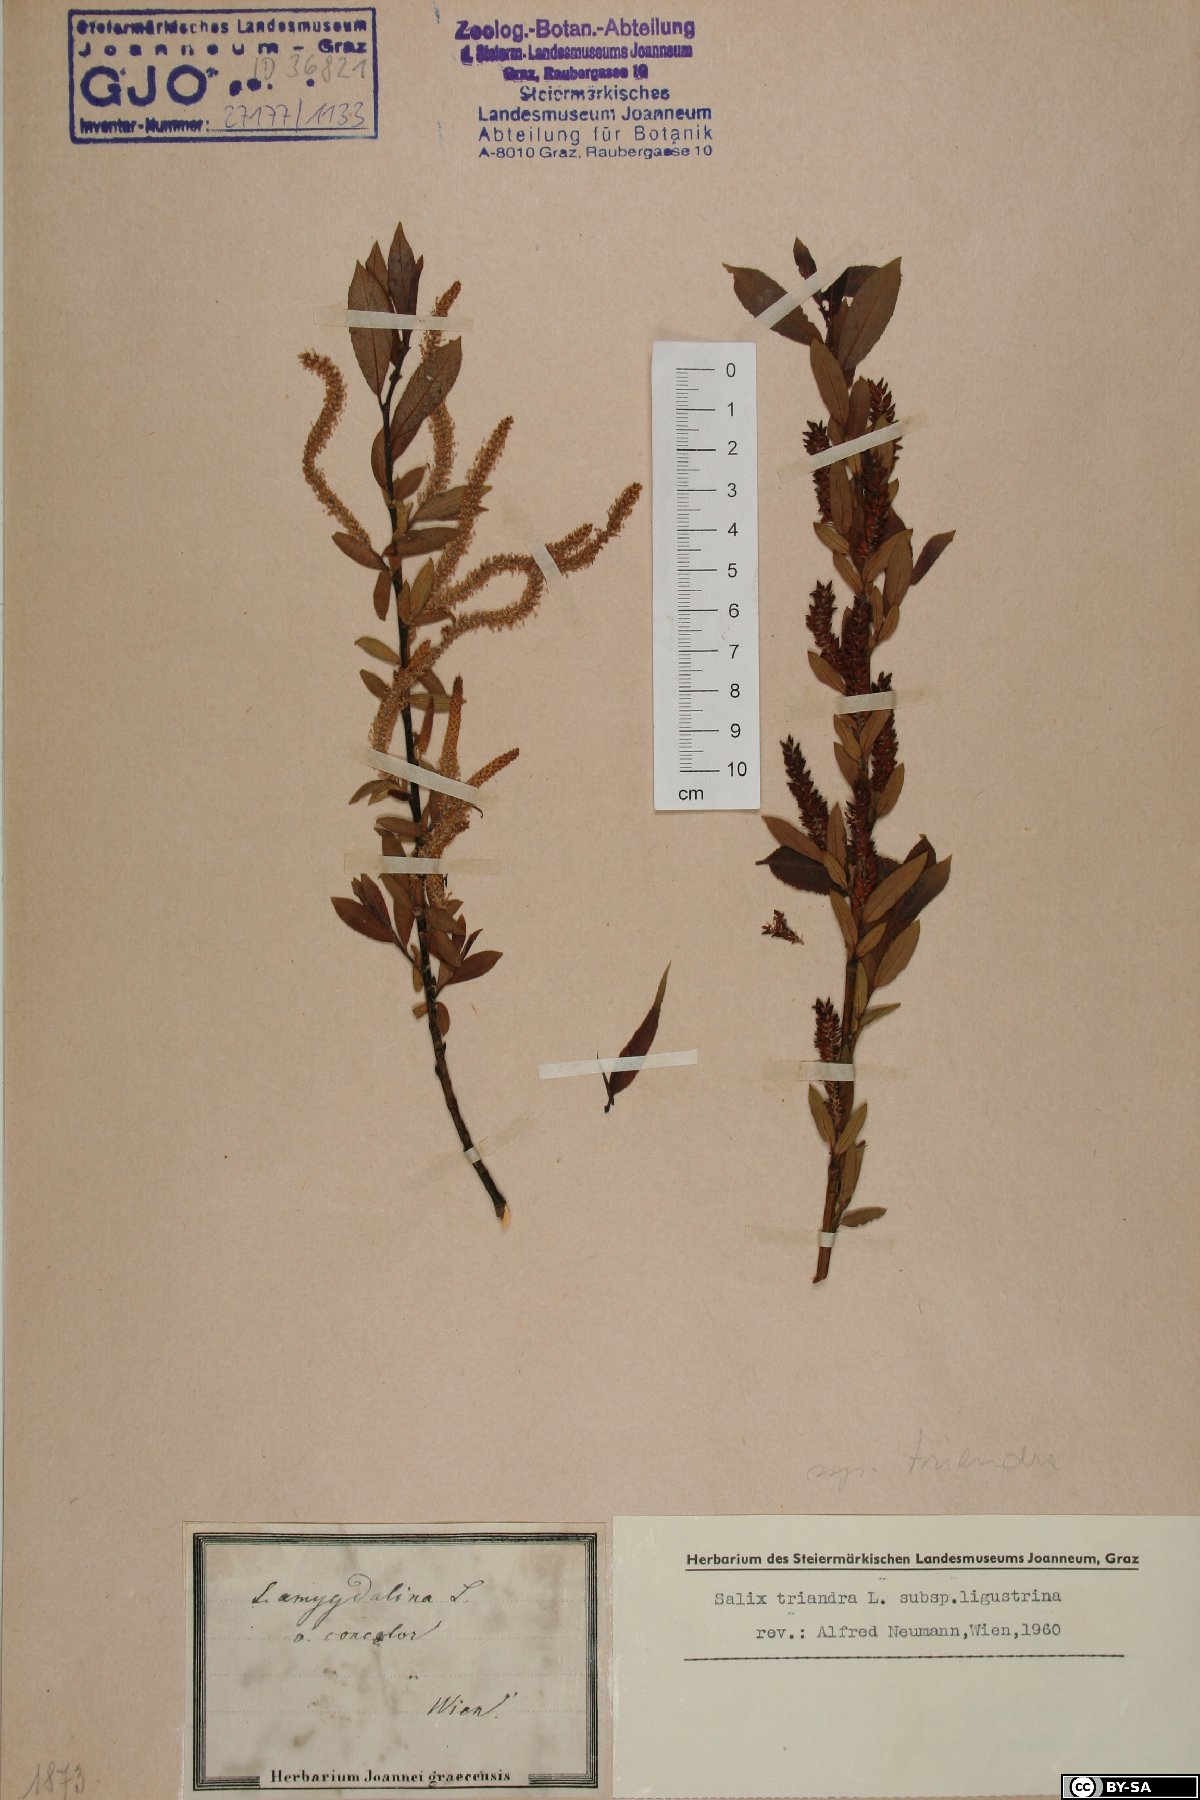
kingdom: Plantae
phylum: Tracheophyta
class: Magnoliopsida
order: Malpighiales
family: Salicaceae
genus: Salix
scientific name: Salix triandra
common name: Almond willow
